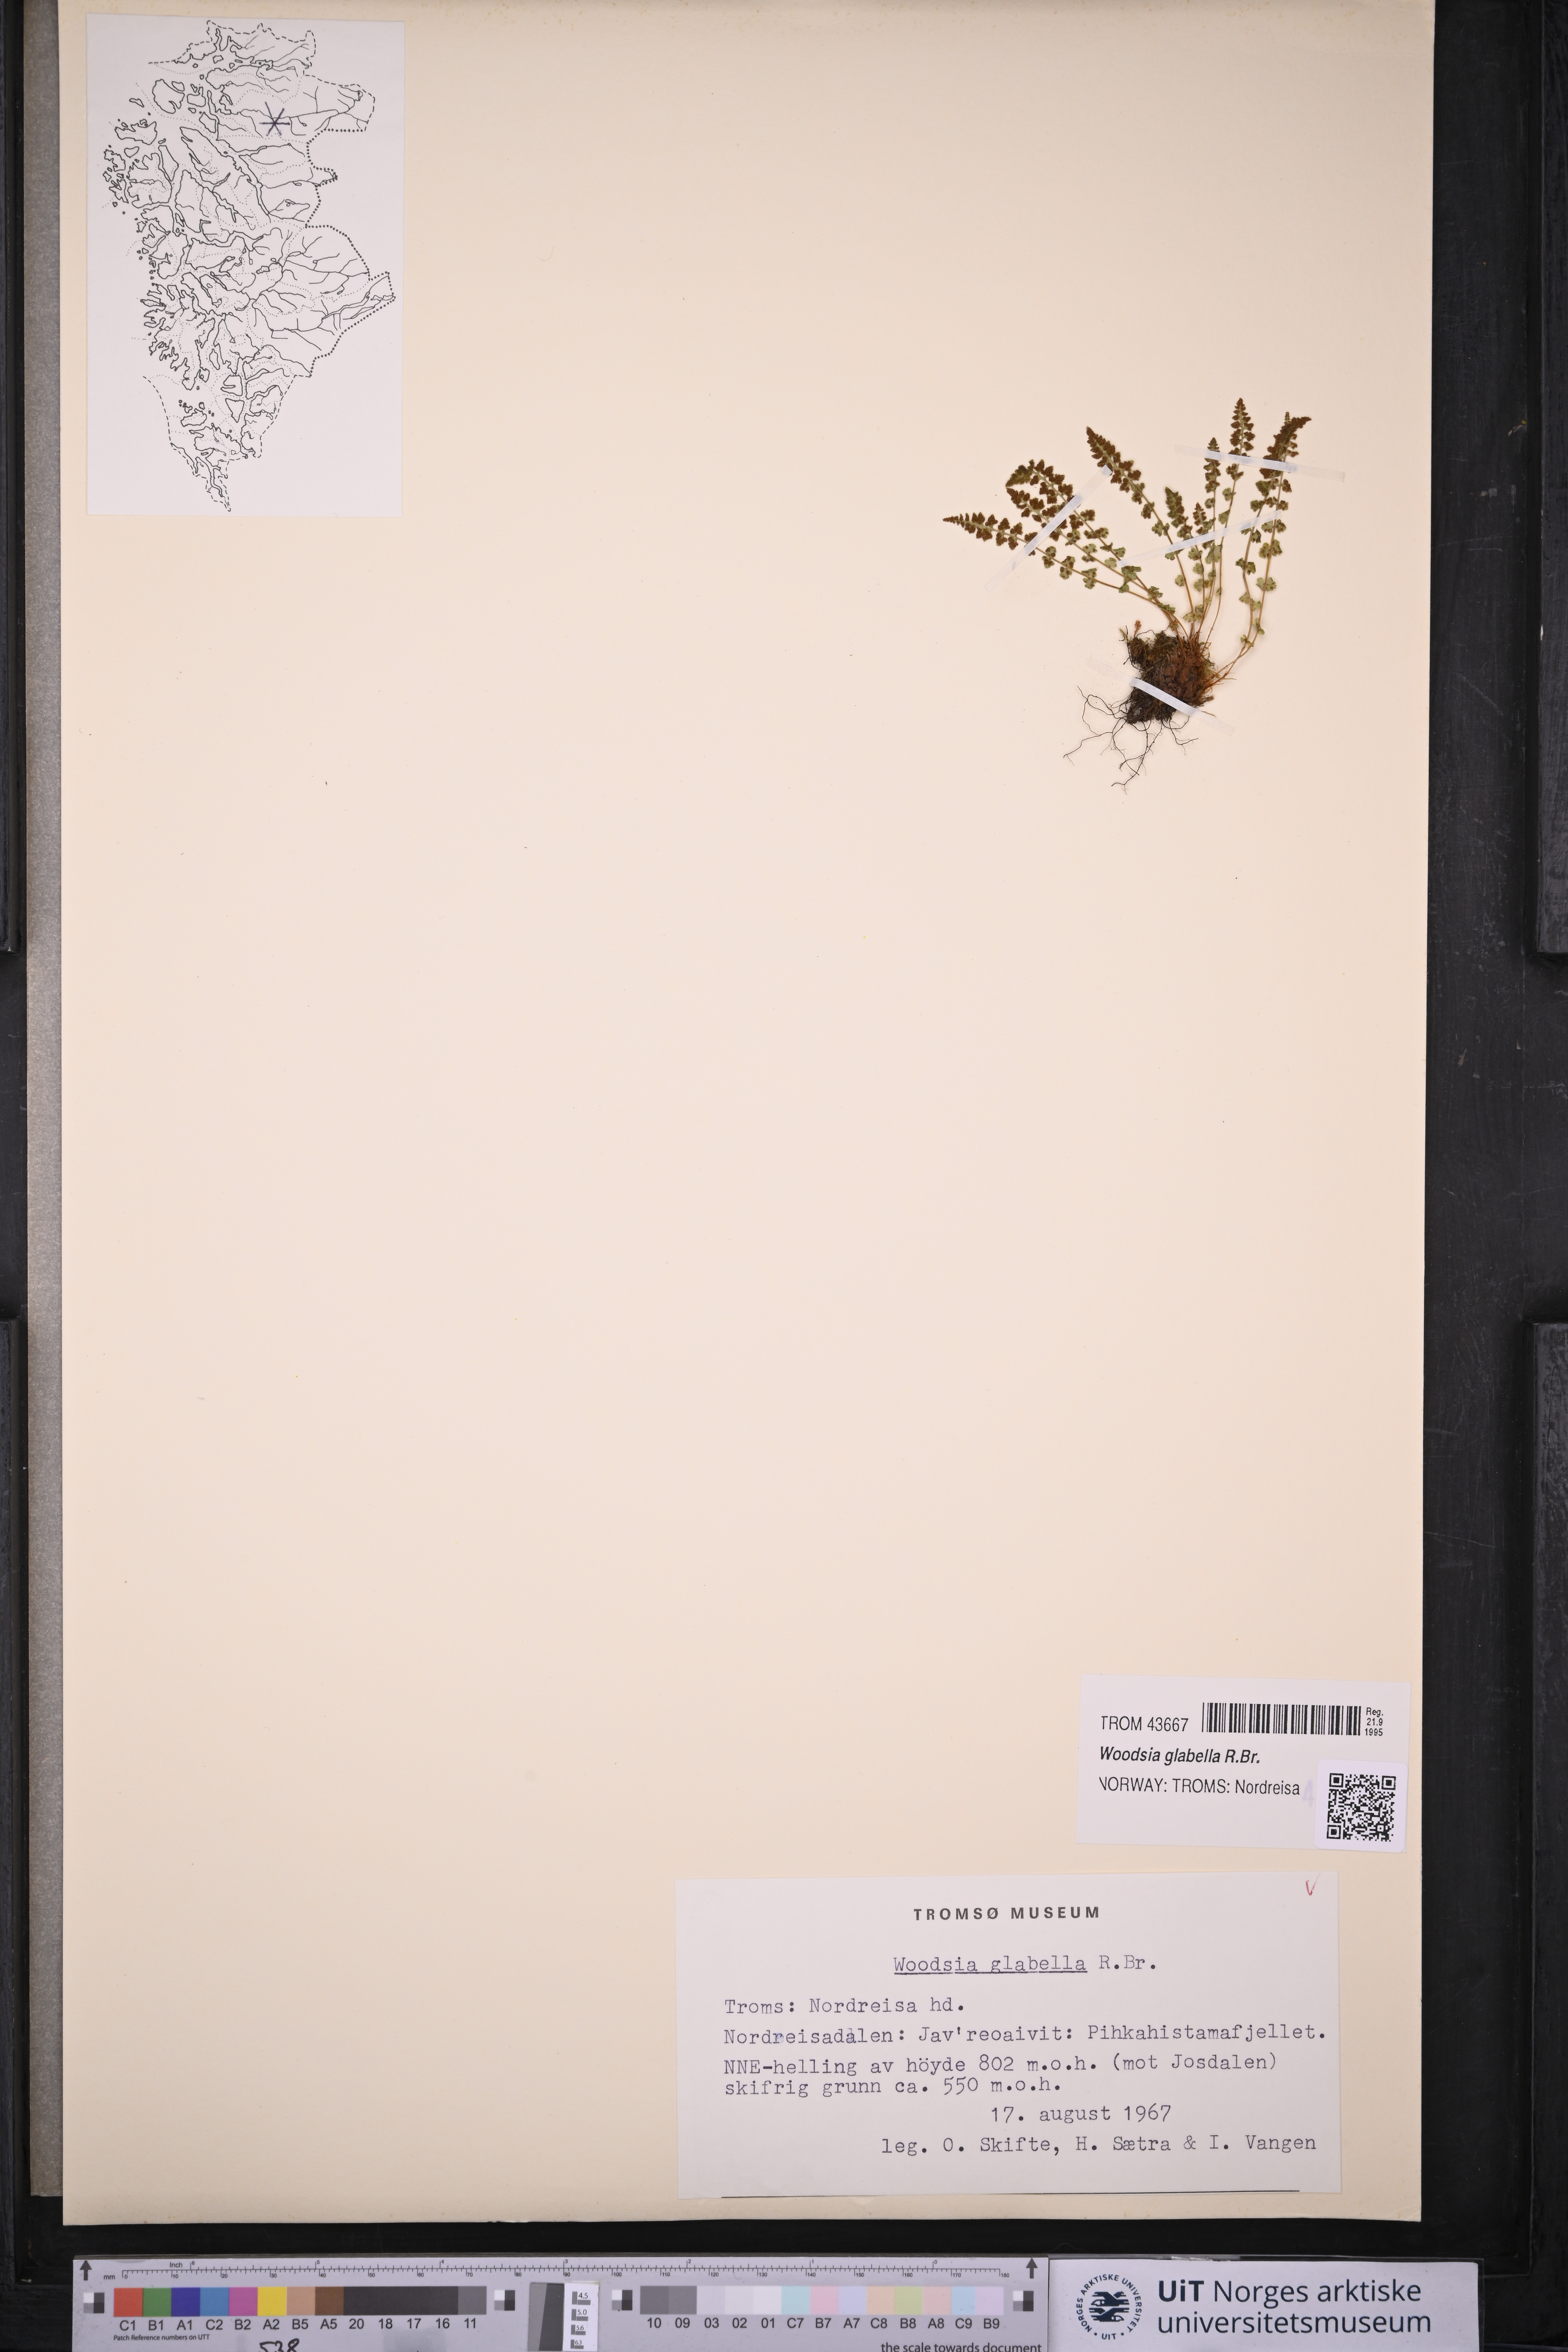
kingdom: Plantae
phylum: Tracheophyta
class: Polypodiopsida
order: Polypodiales
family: Woodsiaceae
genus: Woodsia
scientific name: Woodsia glabella
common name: Smooth woodsia
